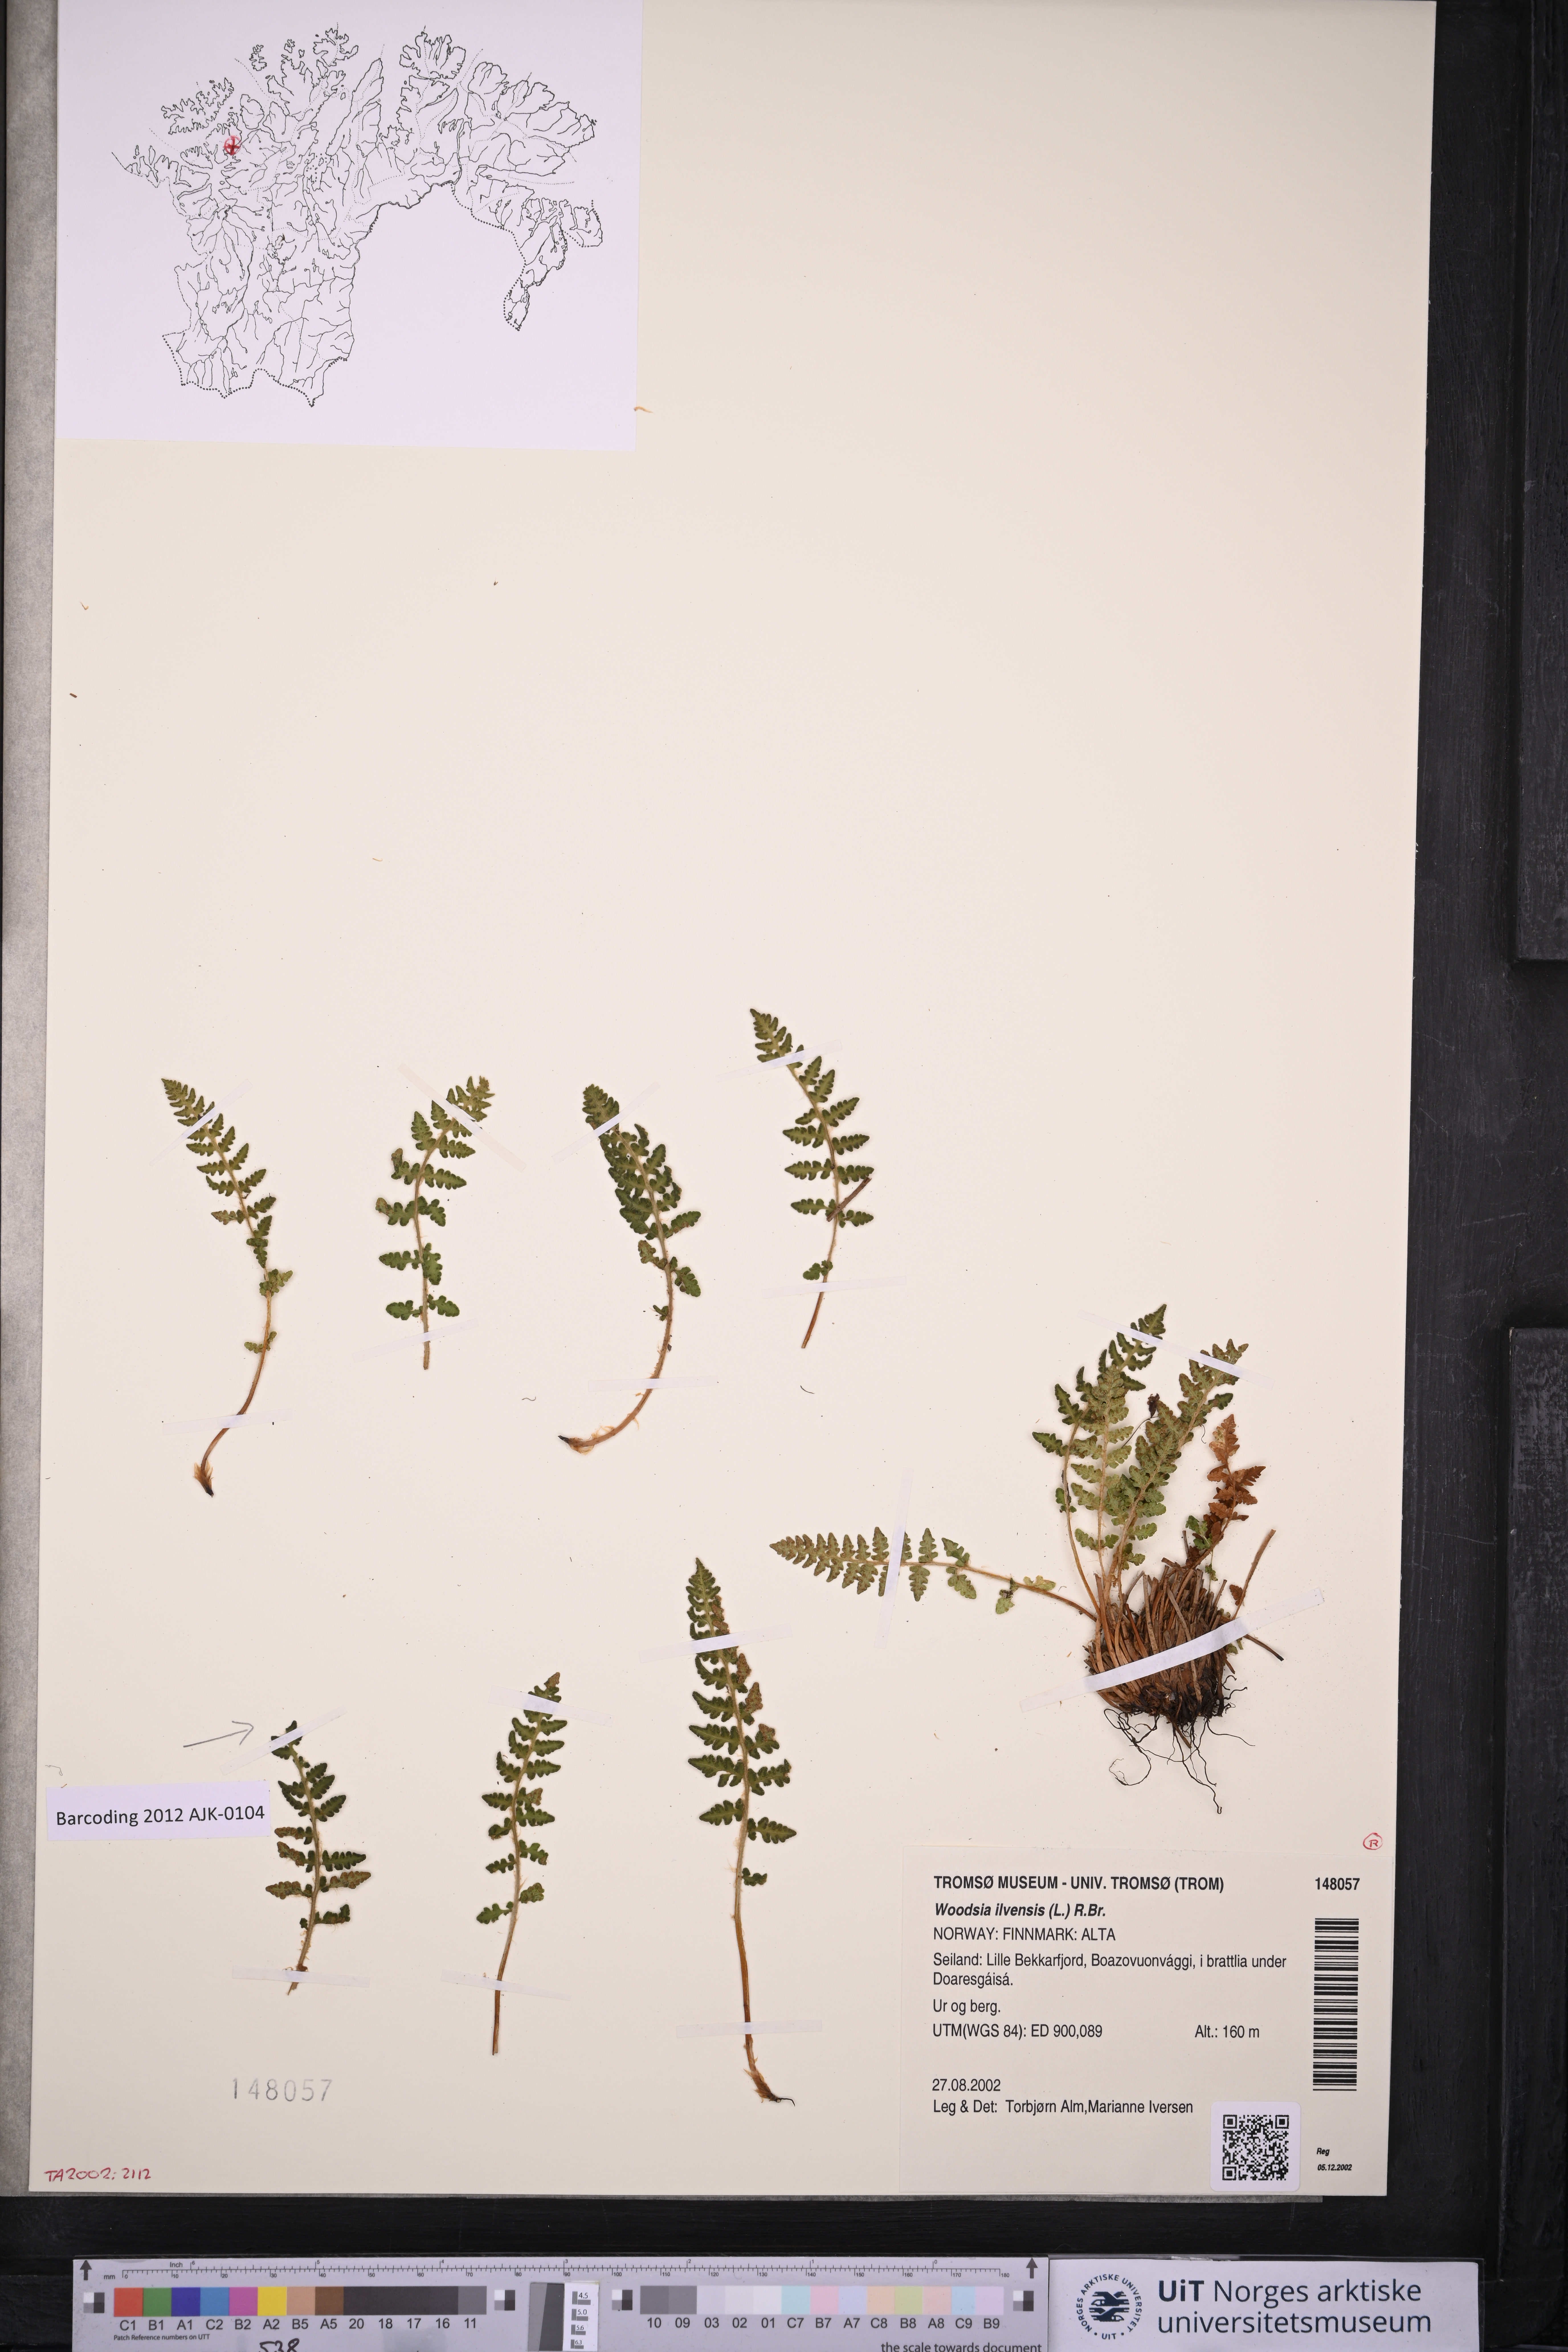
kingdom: Plantae
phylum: Tracheophyta
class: Polypodiopsida
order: Polypodiales
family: Woodsiaceae
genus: Woodsia
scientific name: Woodsia ilvensis
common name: Fragrant woodsia
